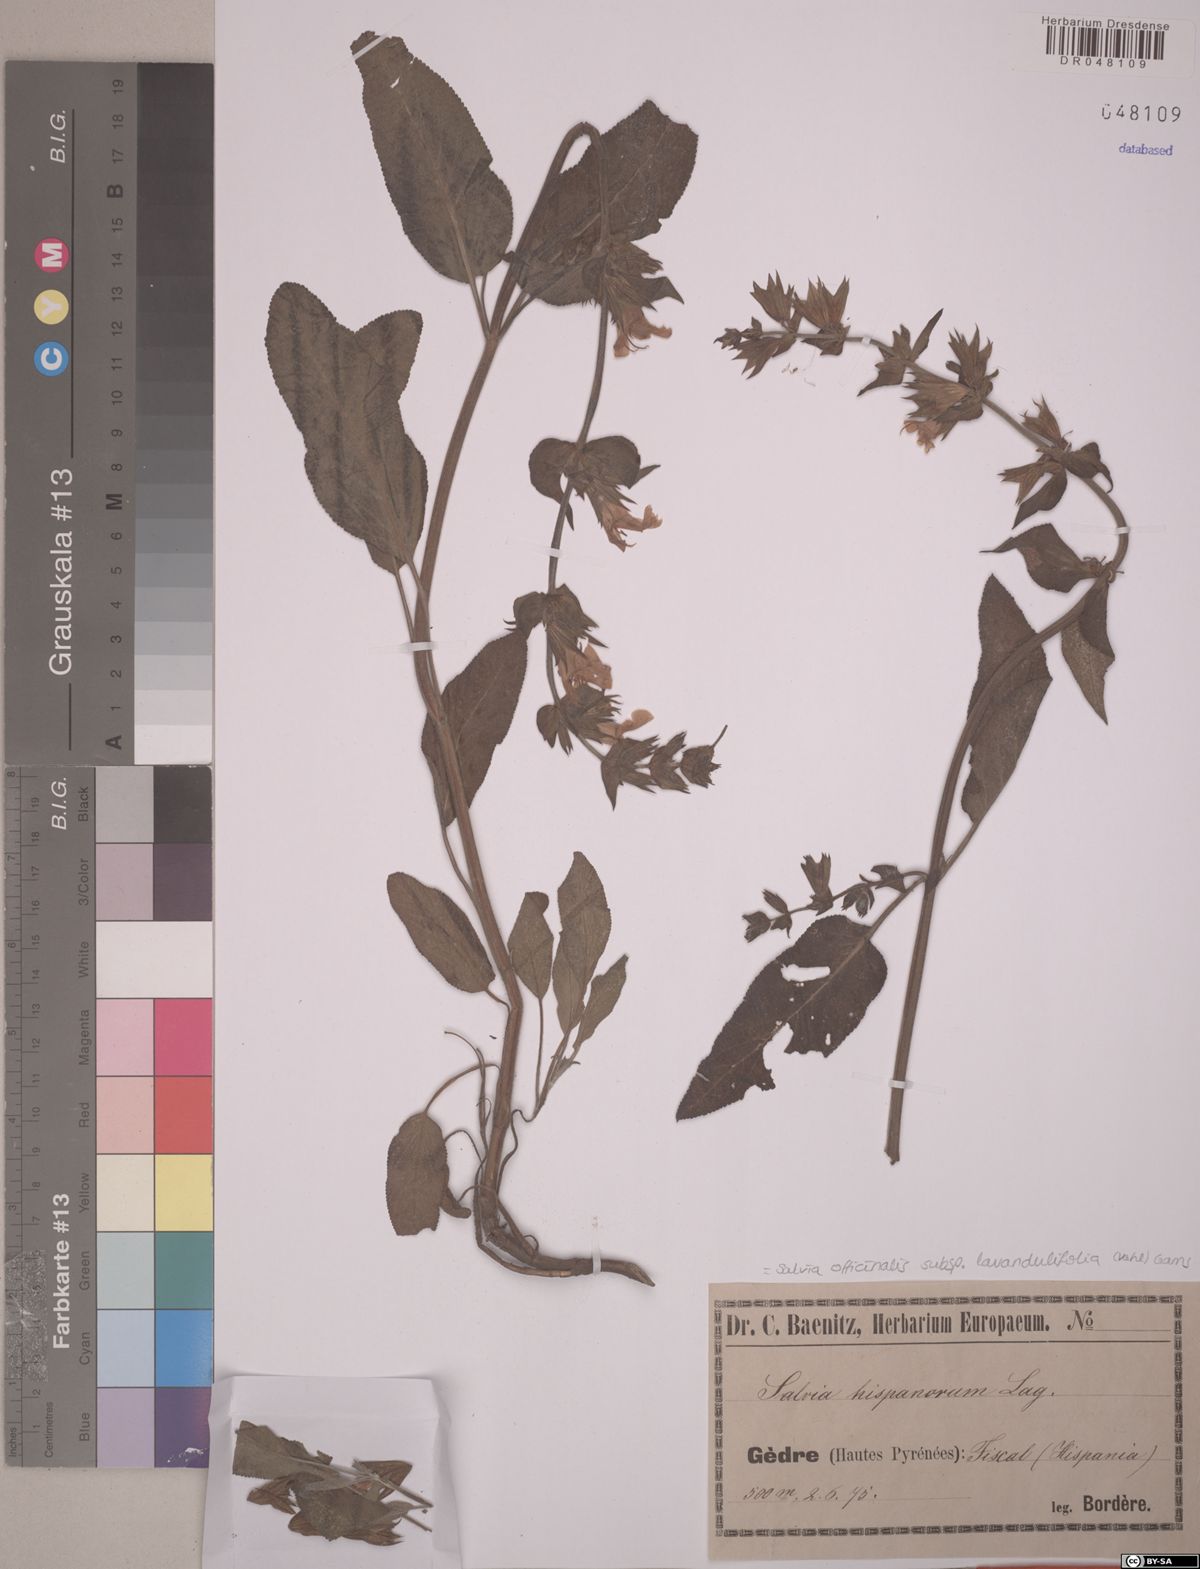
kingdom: Plantae
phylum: Tracheophyta
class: Magnoliopsida
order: Lamiales
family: Lamiaceae
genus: Salvia
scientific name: Salvia officinalis
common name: Sage
